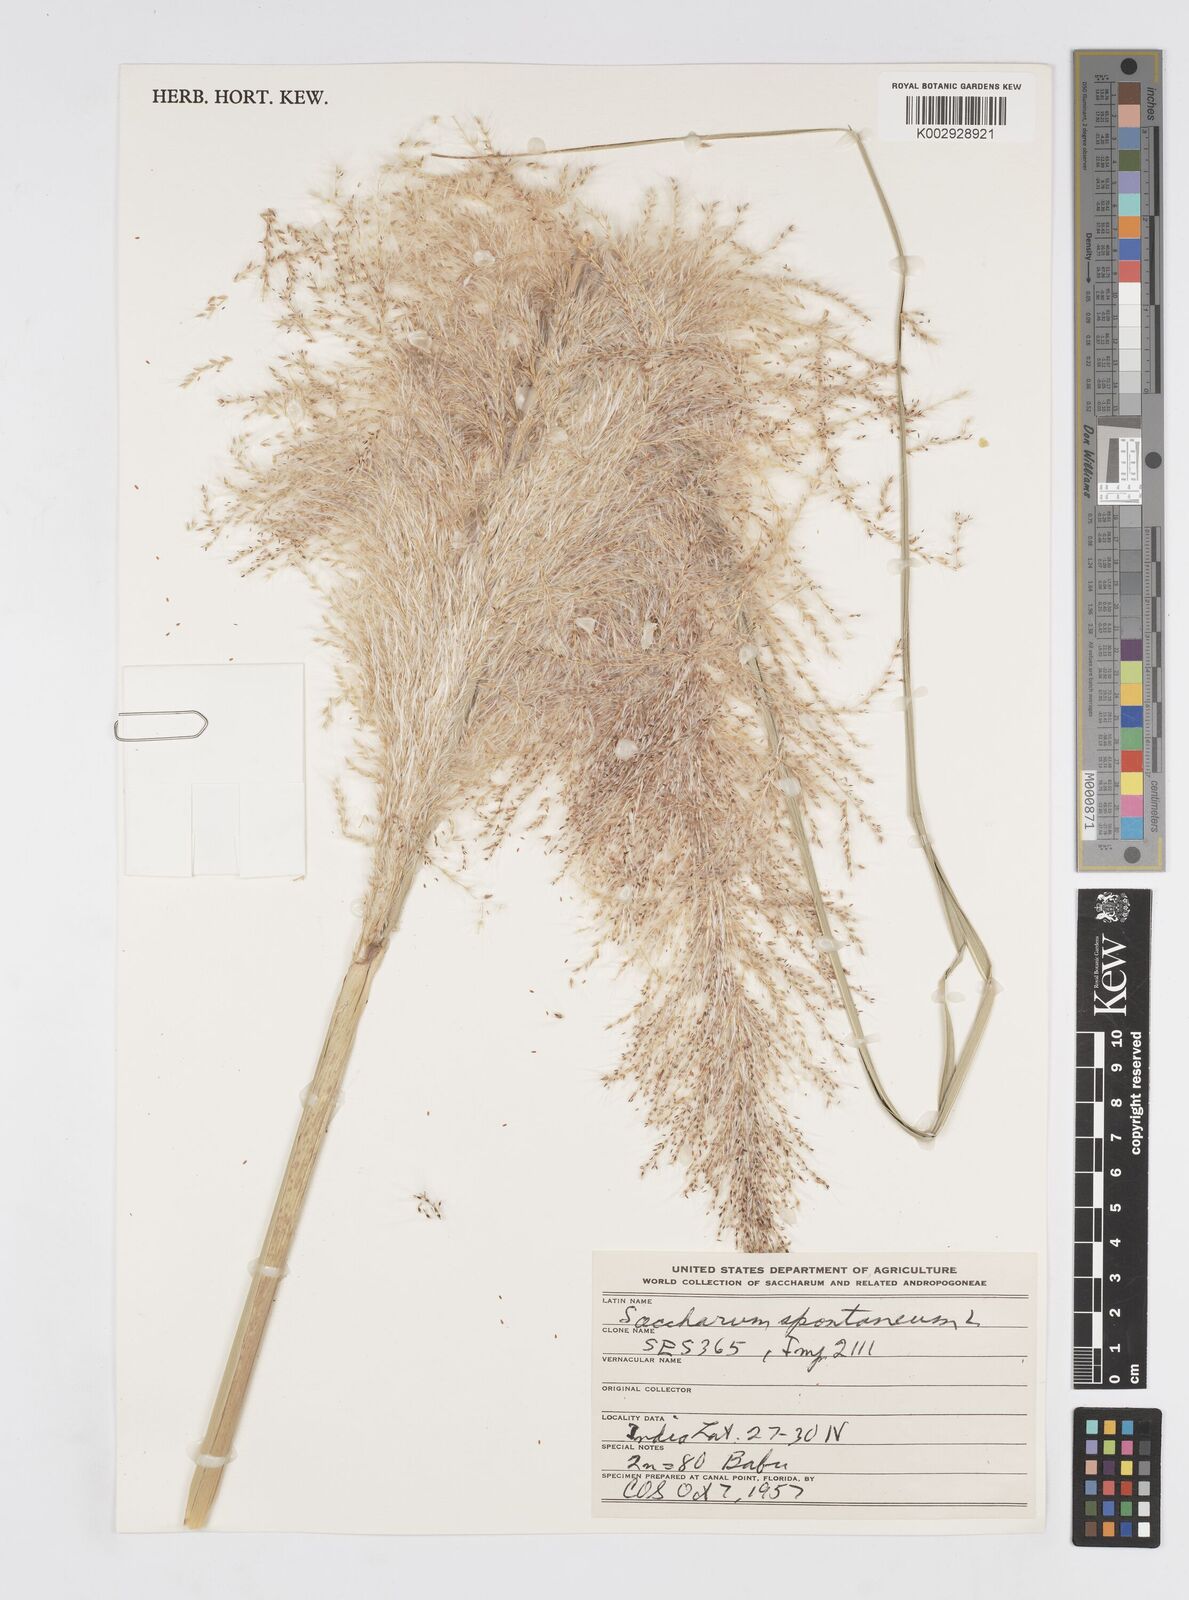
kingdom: Plantae
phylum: Tracheophyta
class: Liliopsida
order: Poales
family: Poaceae
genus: Saccharum
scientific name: Saccharum spontaneum
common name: Wild sugarcane
